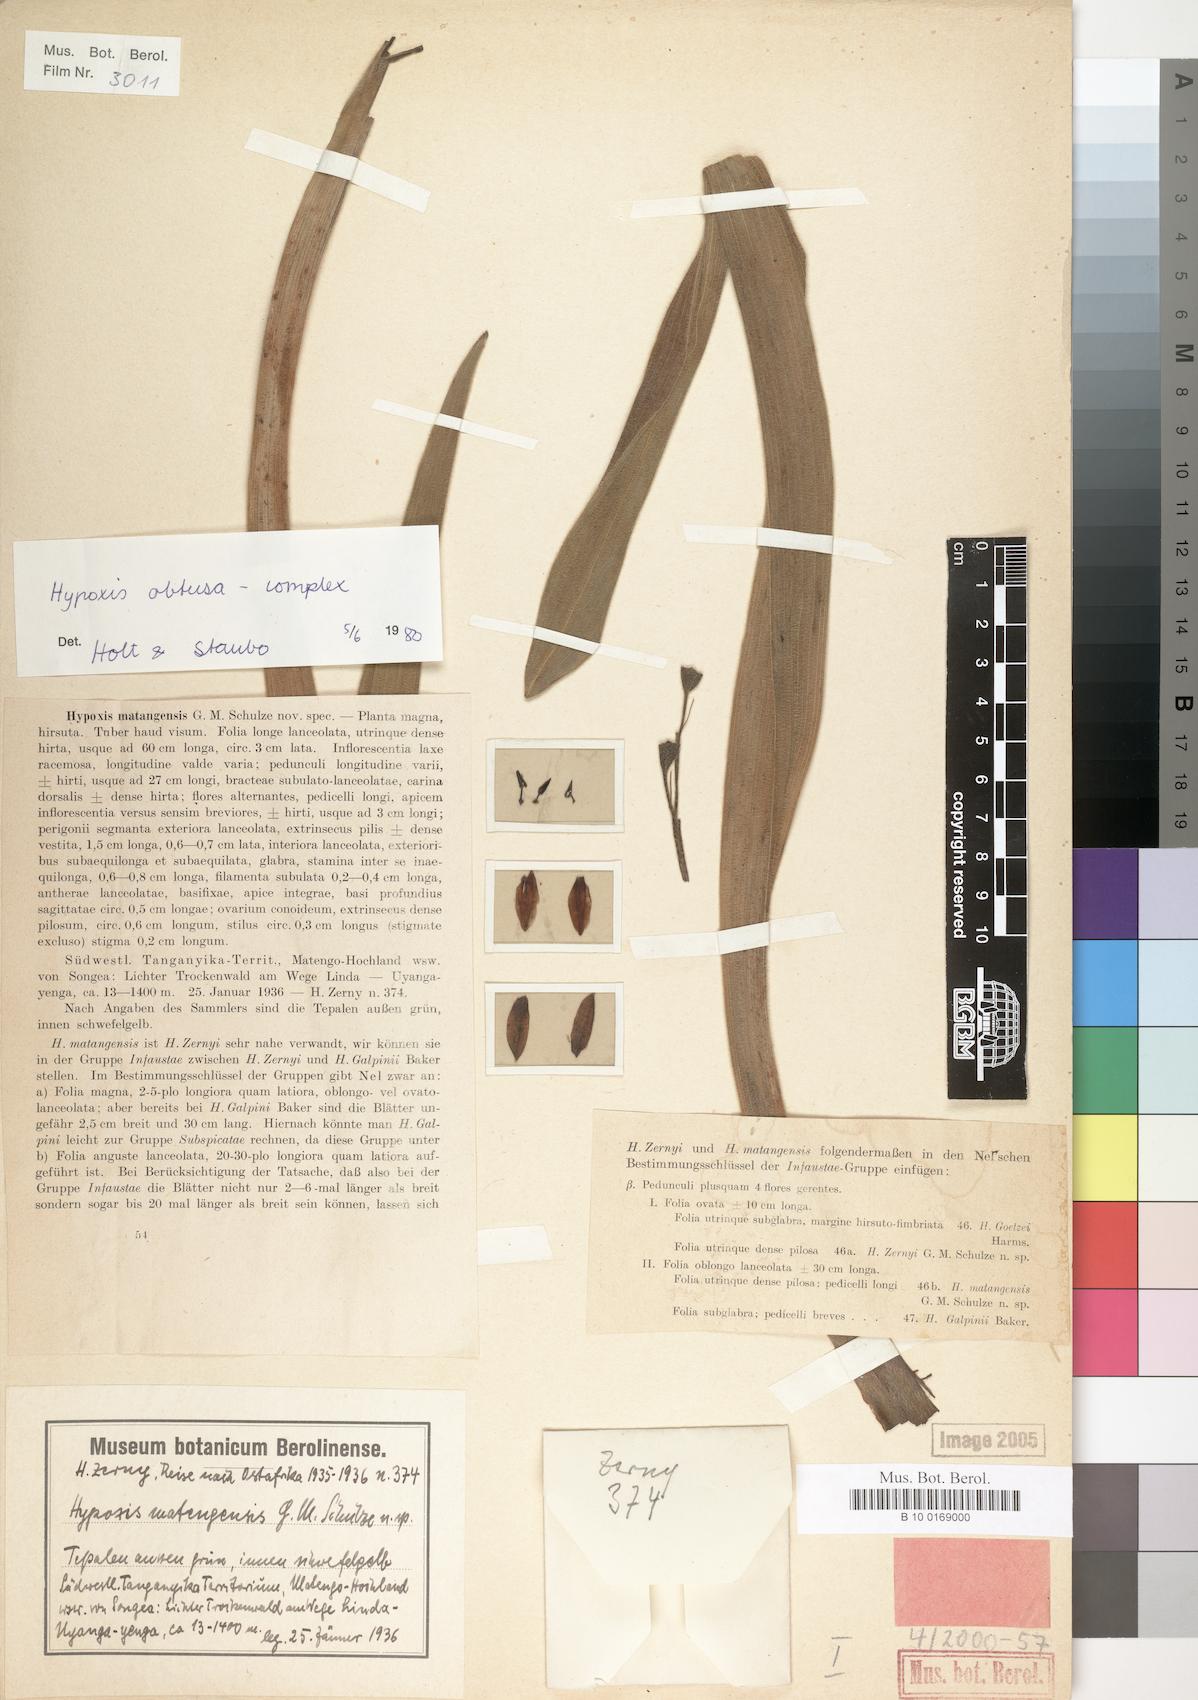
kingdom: Plantae
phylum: Tracheophyta
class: Liliopsida
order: Asparagales
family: Hypoxidaceae
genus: Hypoxis
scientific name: Hypoxis
